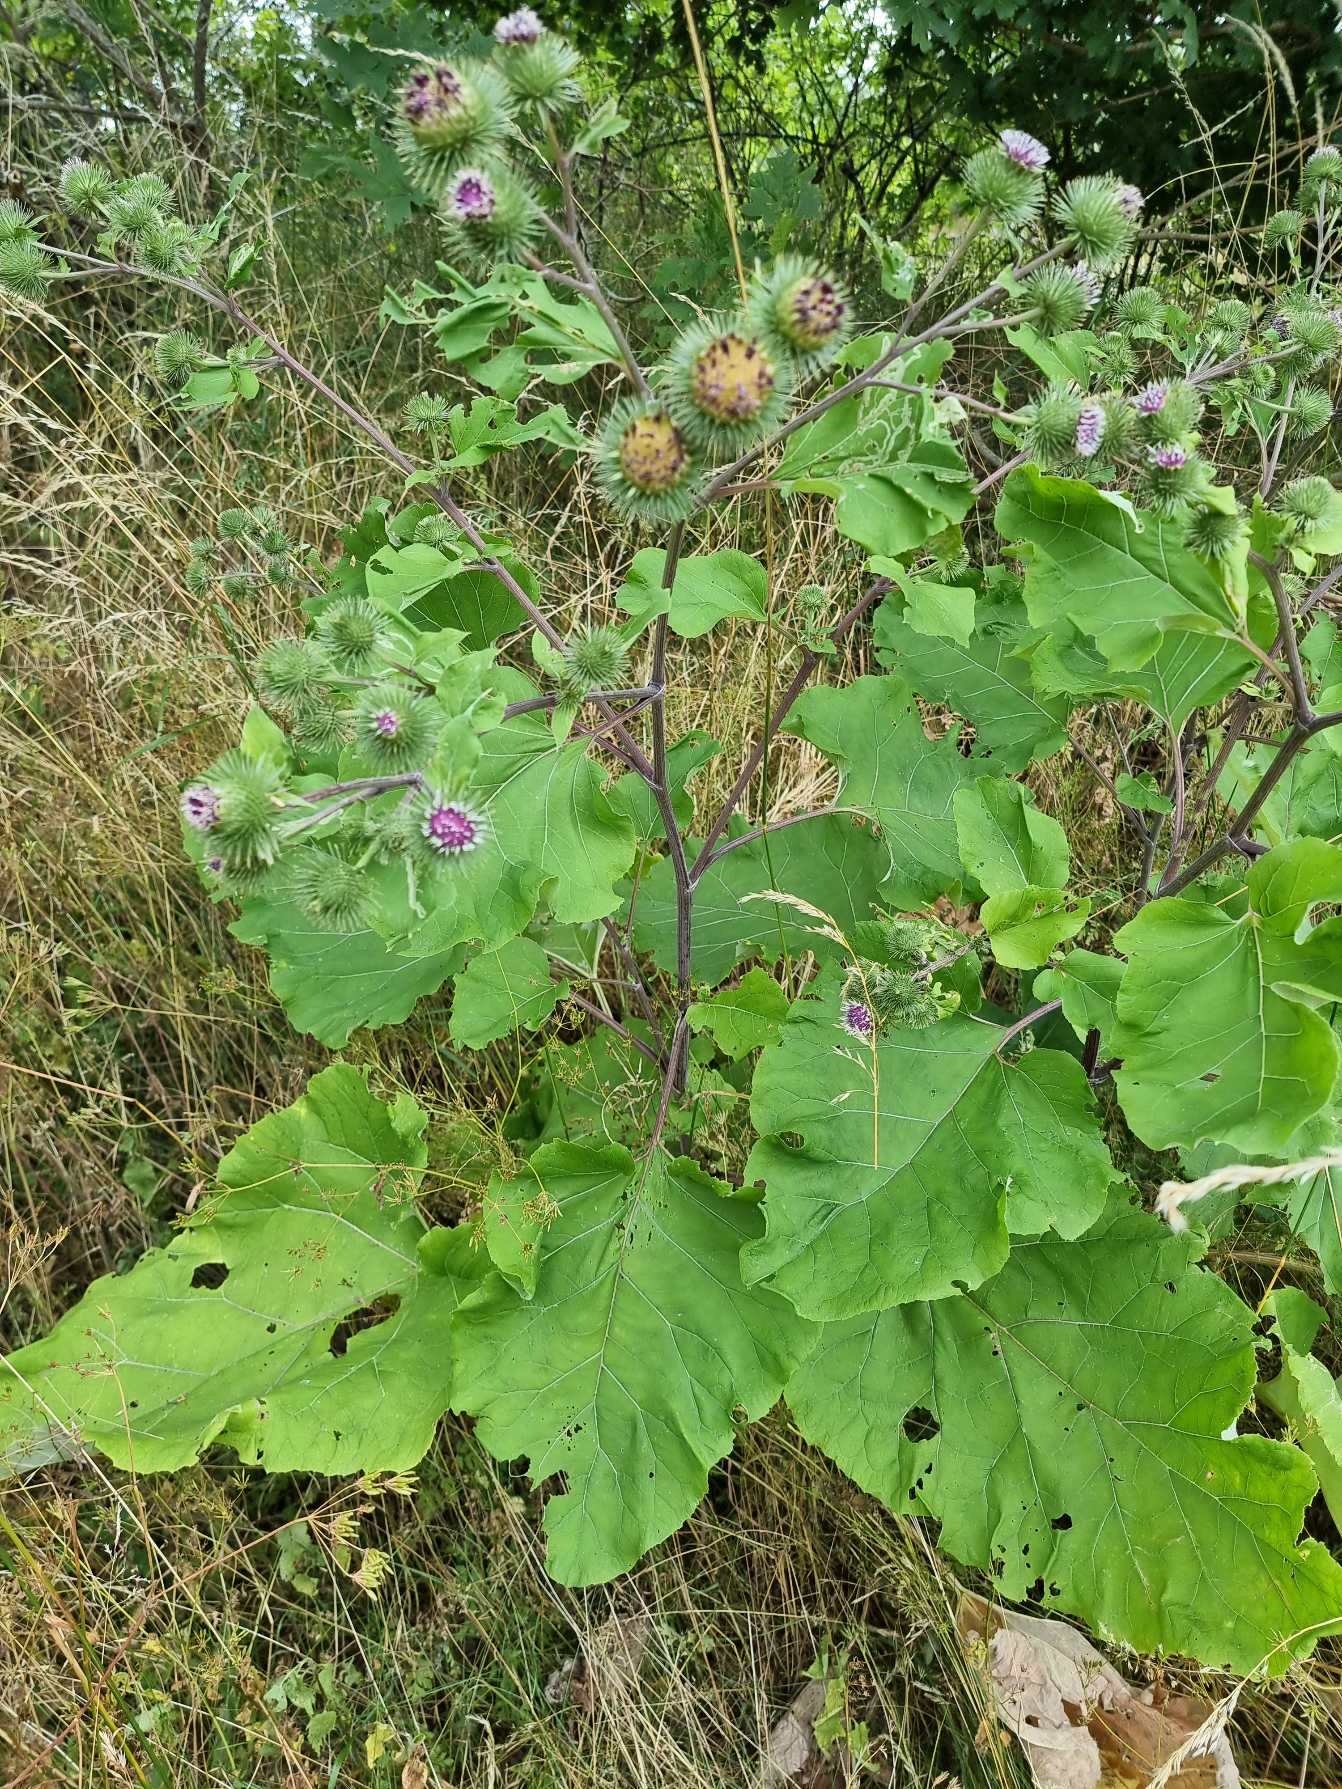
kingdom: Plantae
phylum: Tracheophyta
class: Magnoliopsida
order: Asterales
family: Asteraceae
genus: Arctium
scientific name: Arctium lappa
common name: Glat burre
